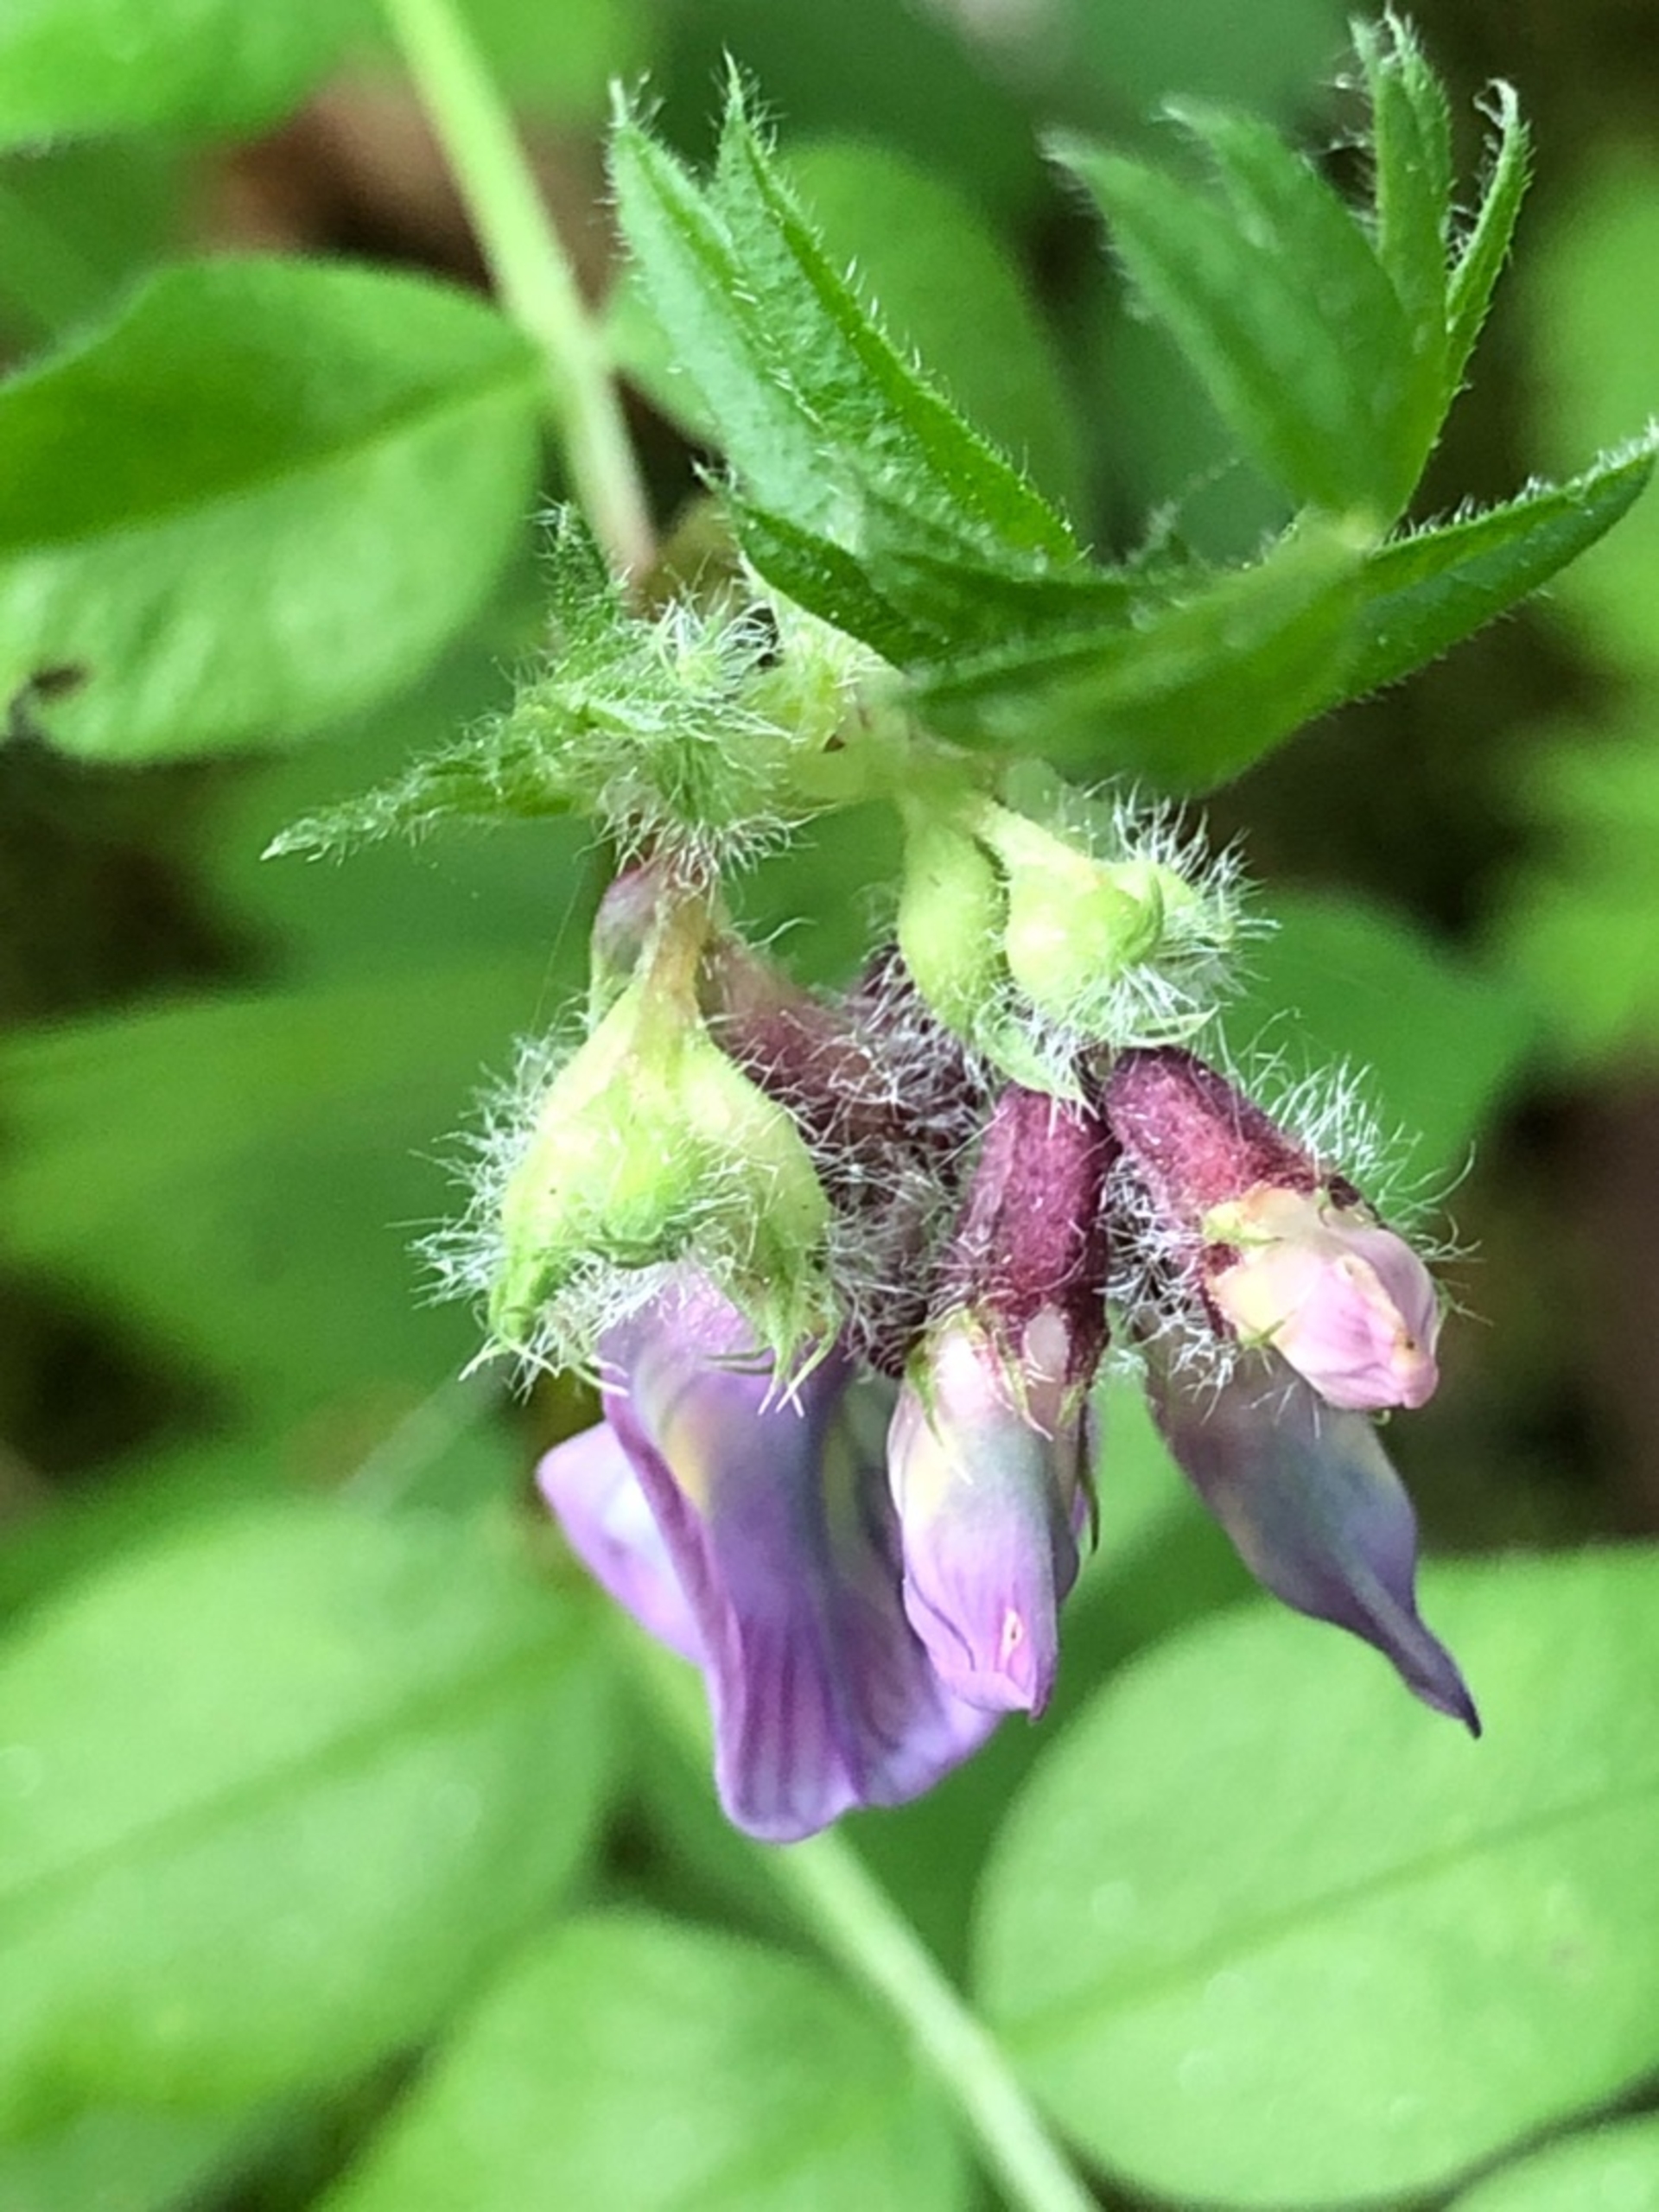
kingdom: Plantae
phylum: Tracheophyta
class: Magnoliopsida
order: Fabales
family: Fabaceae
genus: Vicia
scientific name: Vicia sepium
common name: Gærde-vikke
